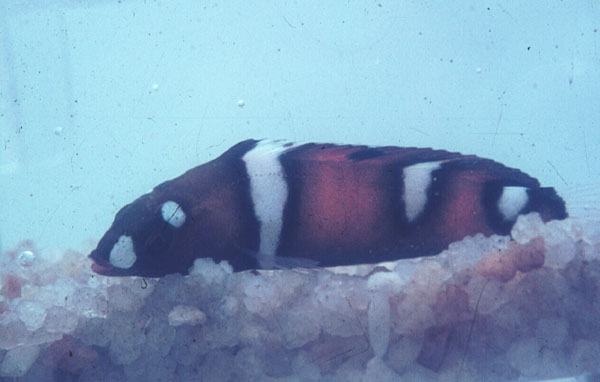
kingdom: Animalia
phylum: Chordata
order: Perciformes
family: Labridae
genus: Coris
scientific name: Coris formosa
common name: Queen coris
